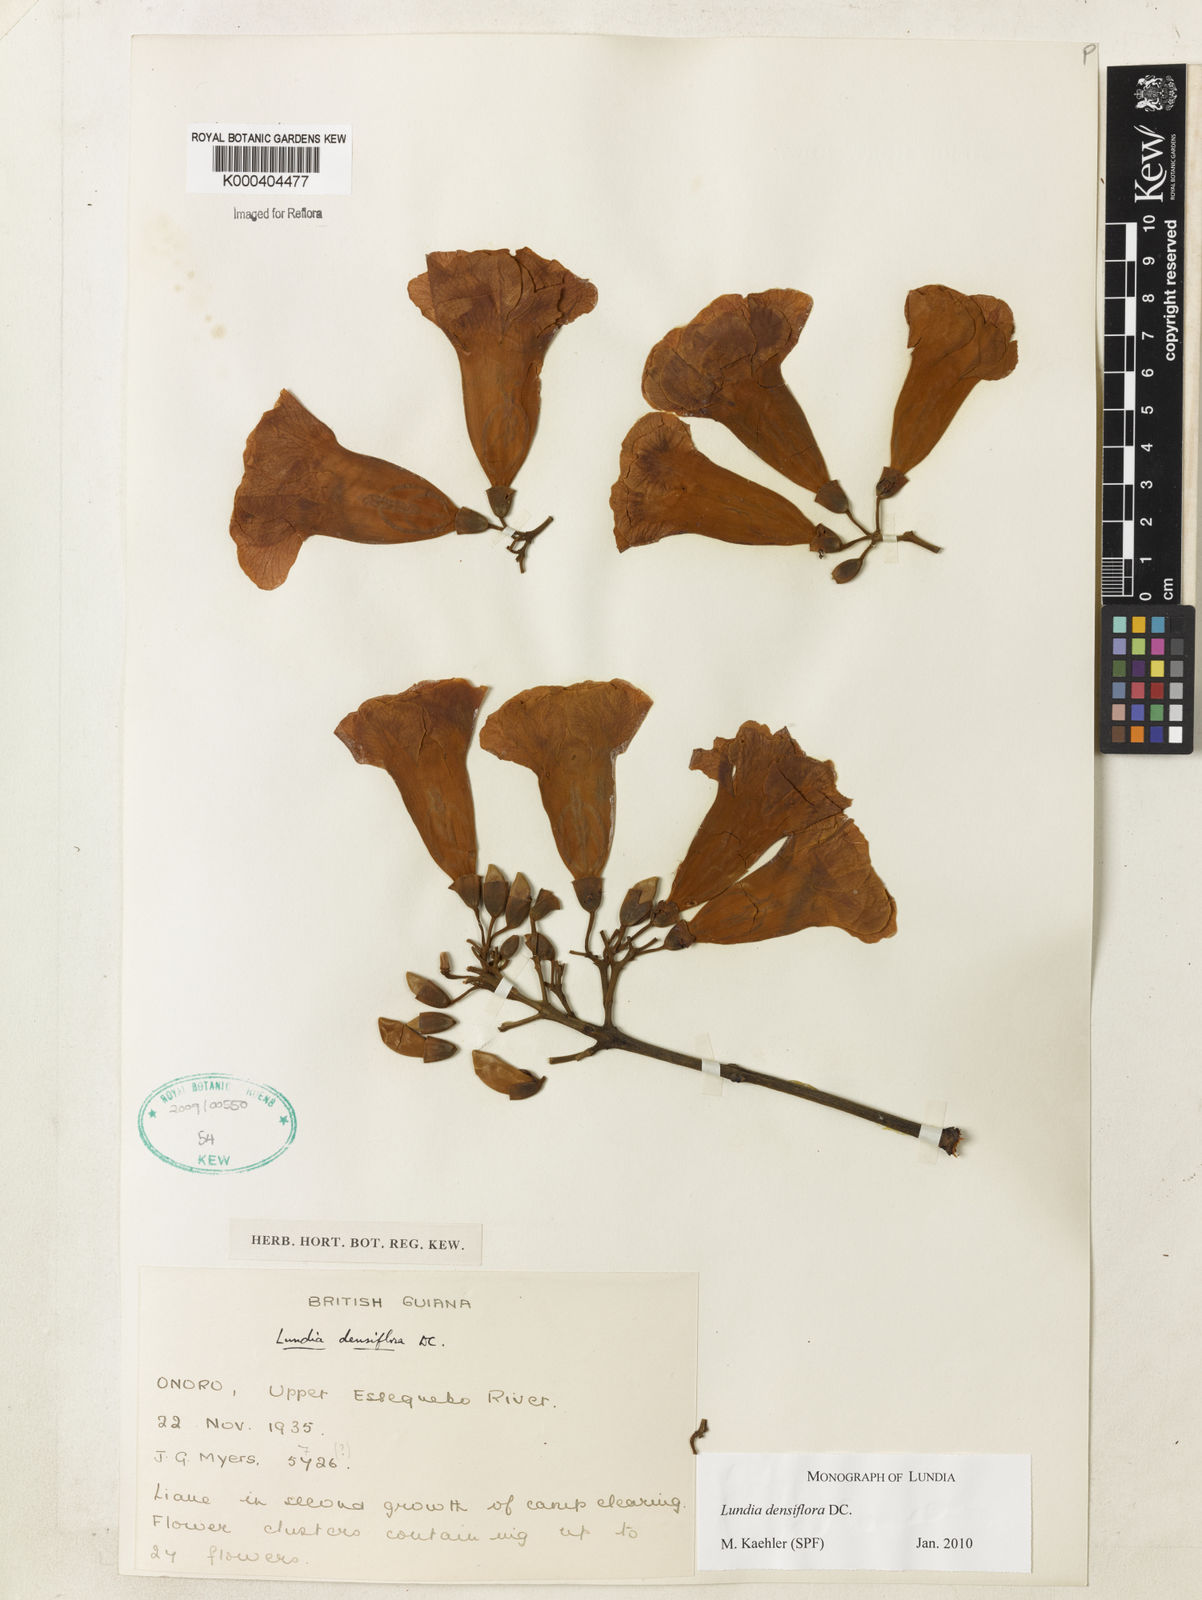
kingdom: Plantae
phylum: Tracheophyta
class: Magnoliopsida
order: Lamiales
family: Bignoniaceae
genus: Lundia
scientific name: Lundia densiflora
